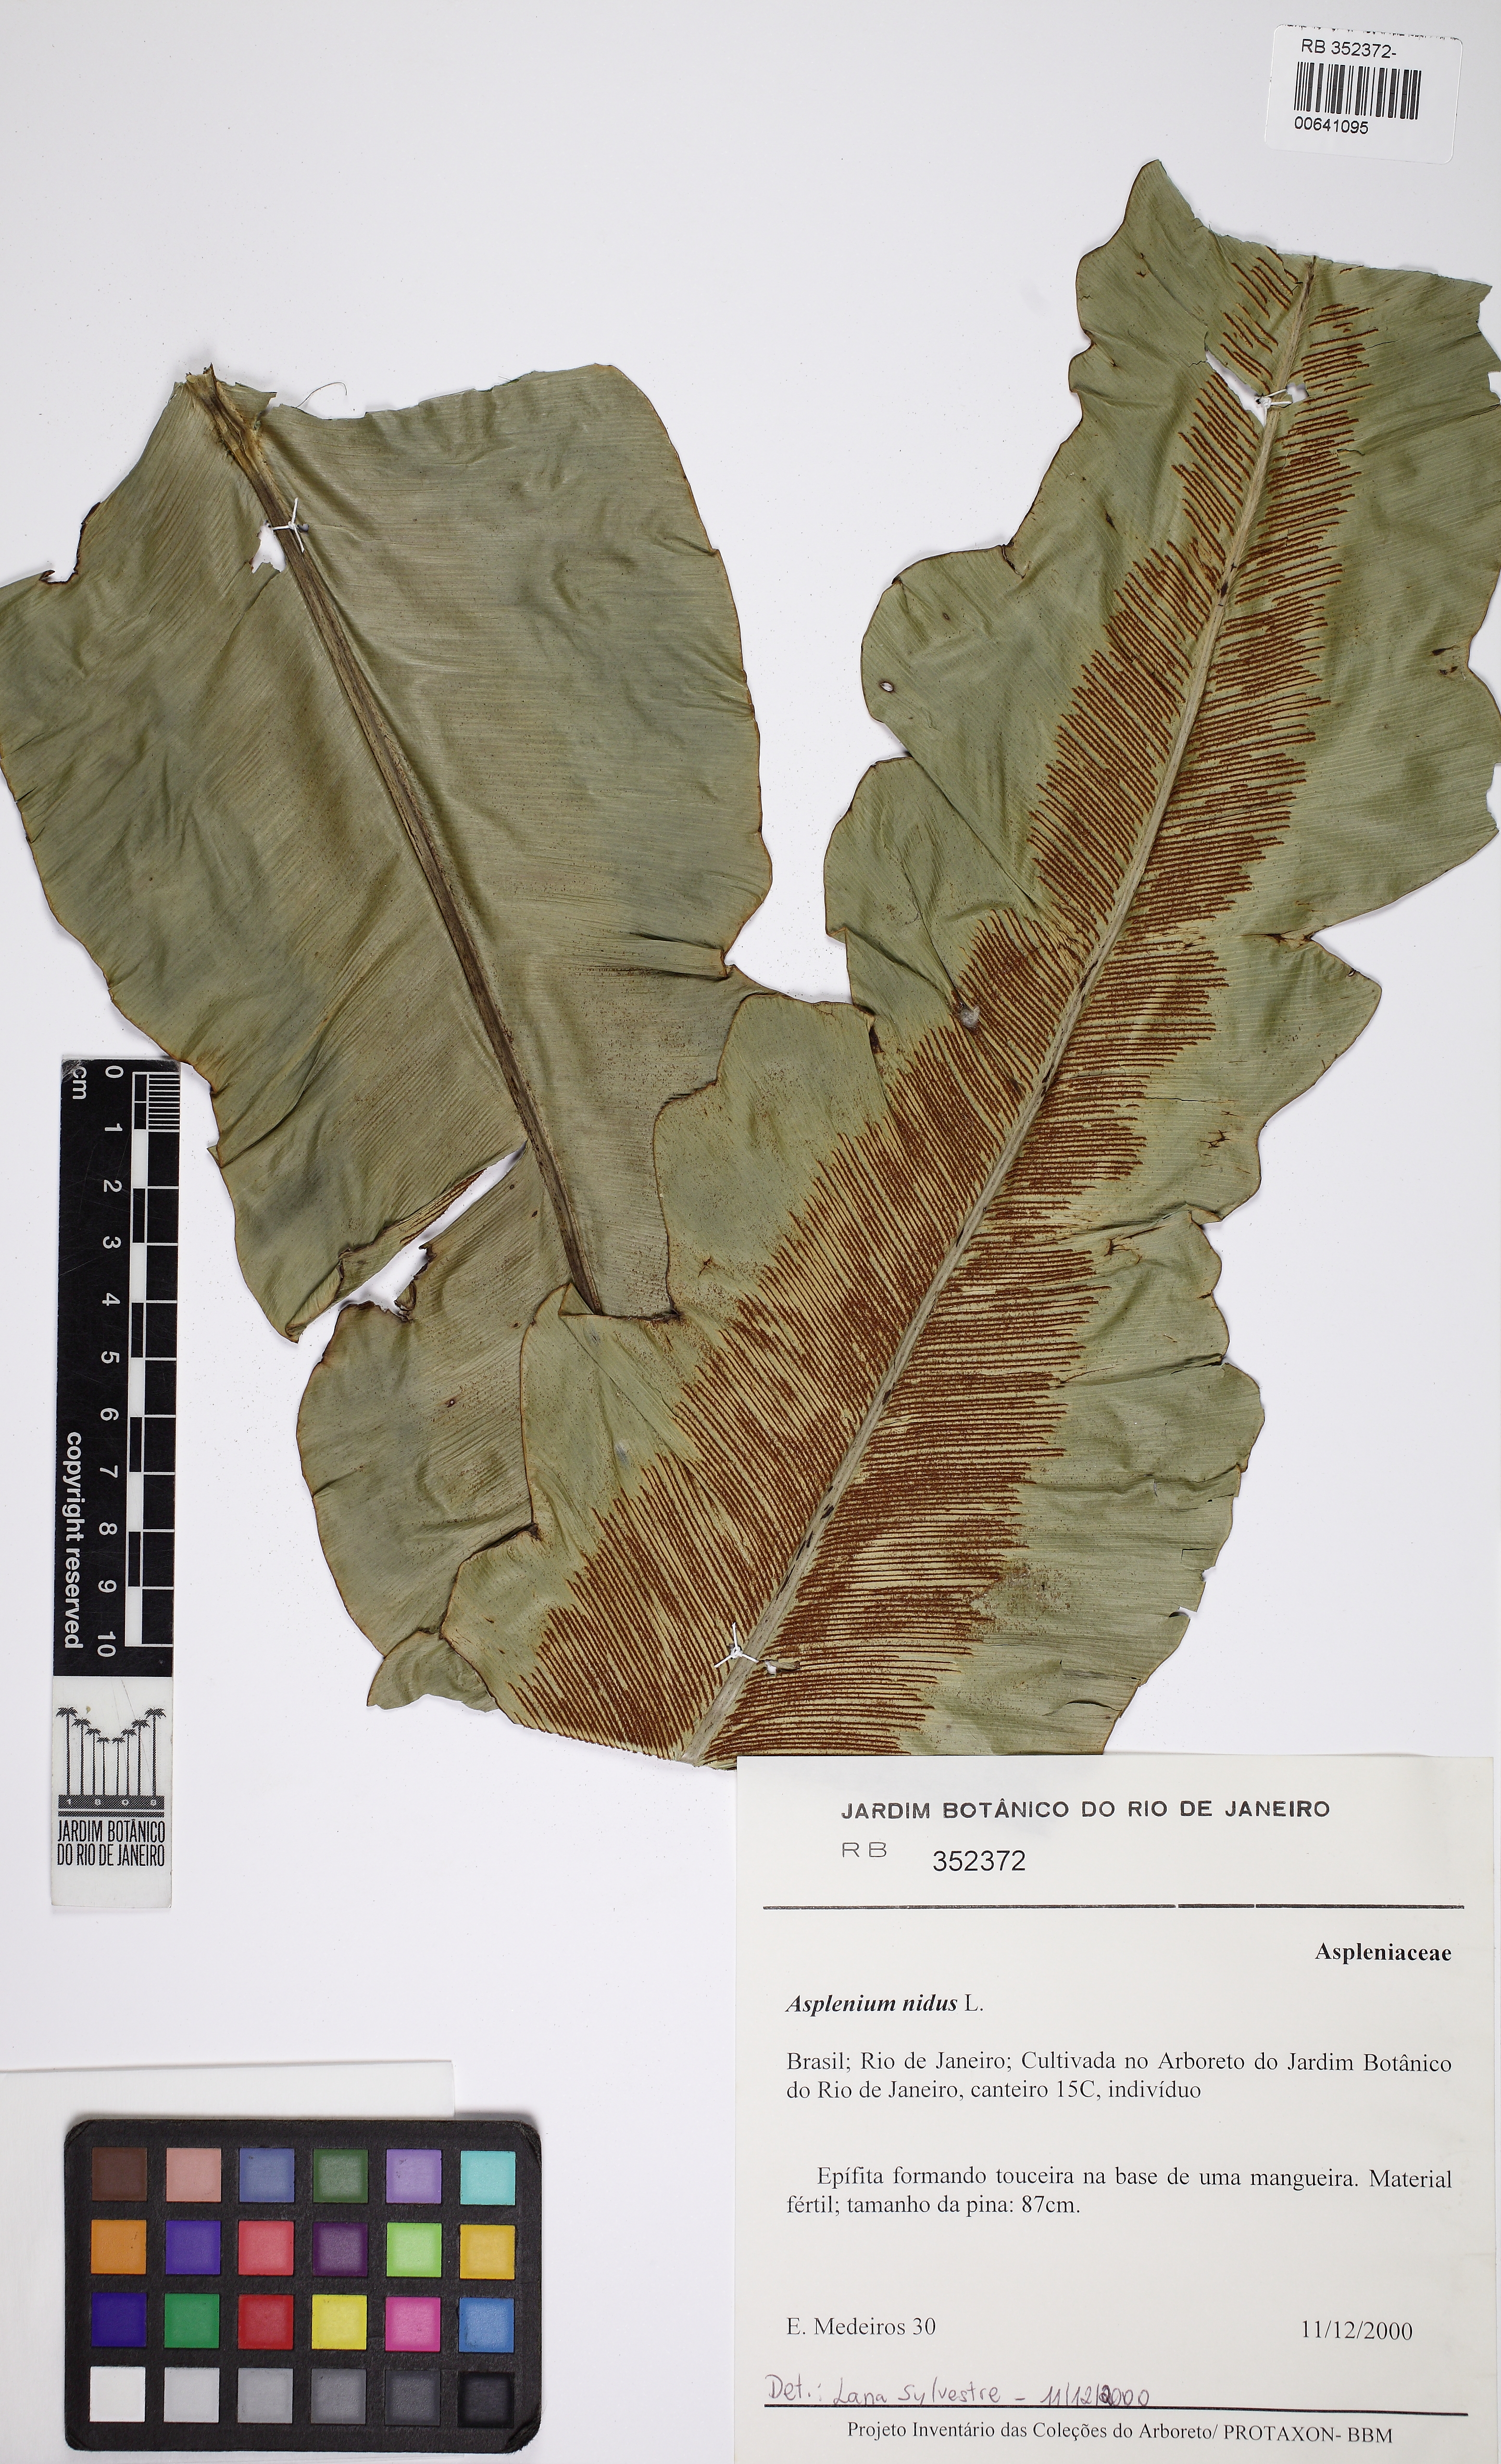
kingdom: Plantae
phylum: Tracheophyta
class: Polypodiopsida
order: Polypodiales
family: Aspleniaceae
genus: Asplenium
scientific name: Asplenium nidus
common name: Bird's-nest fern
